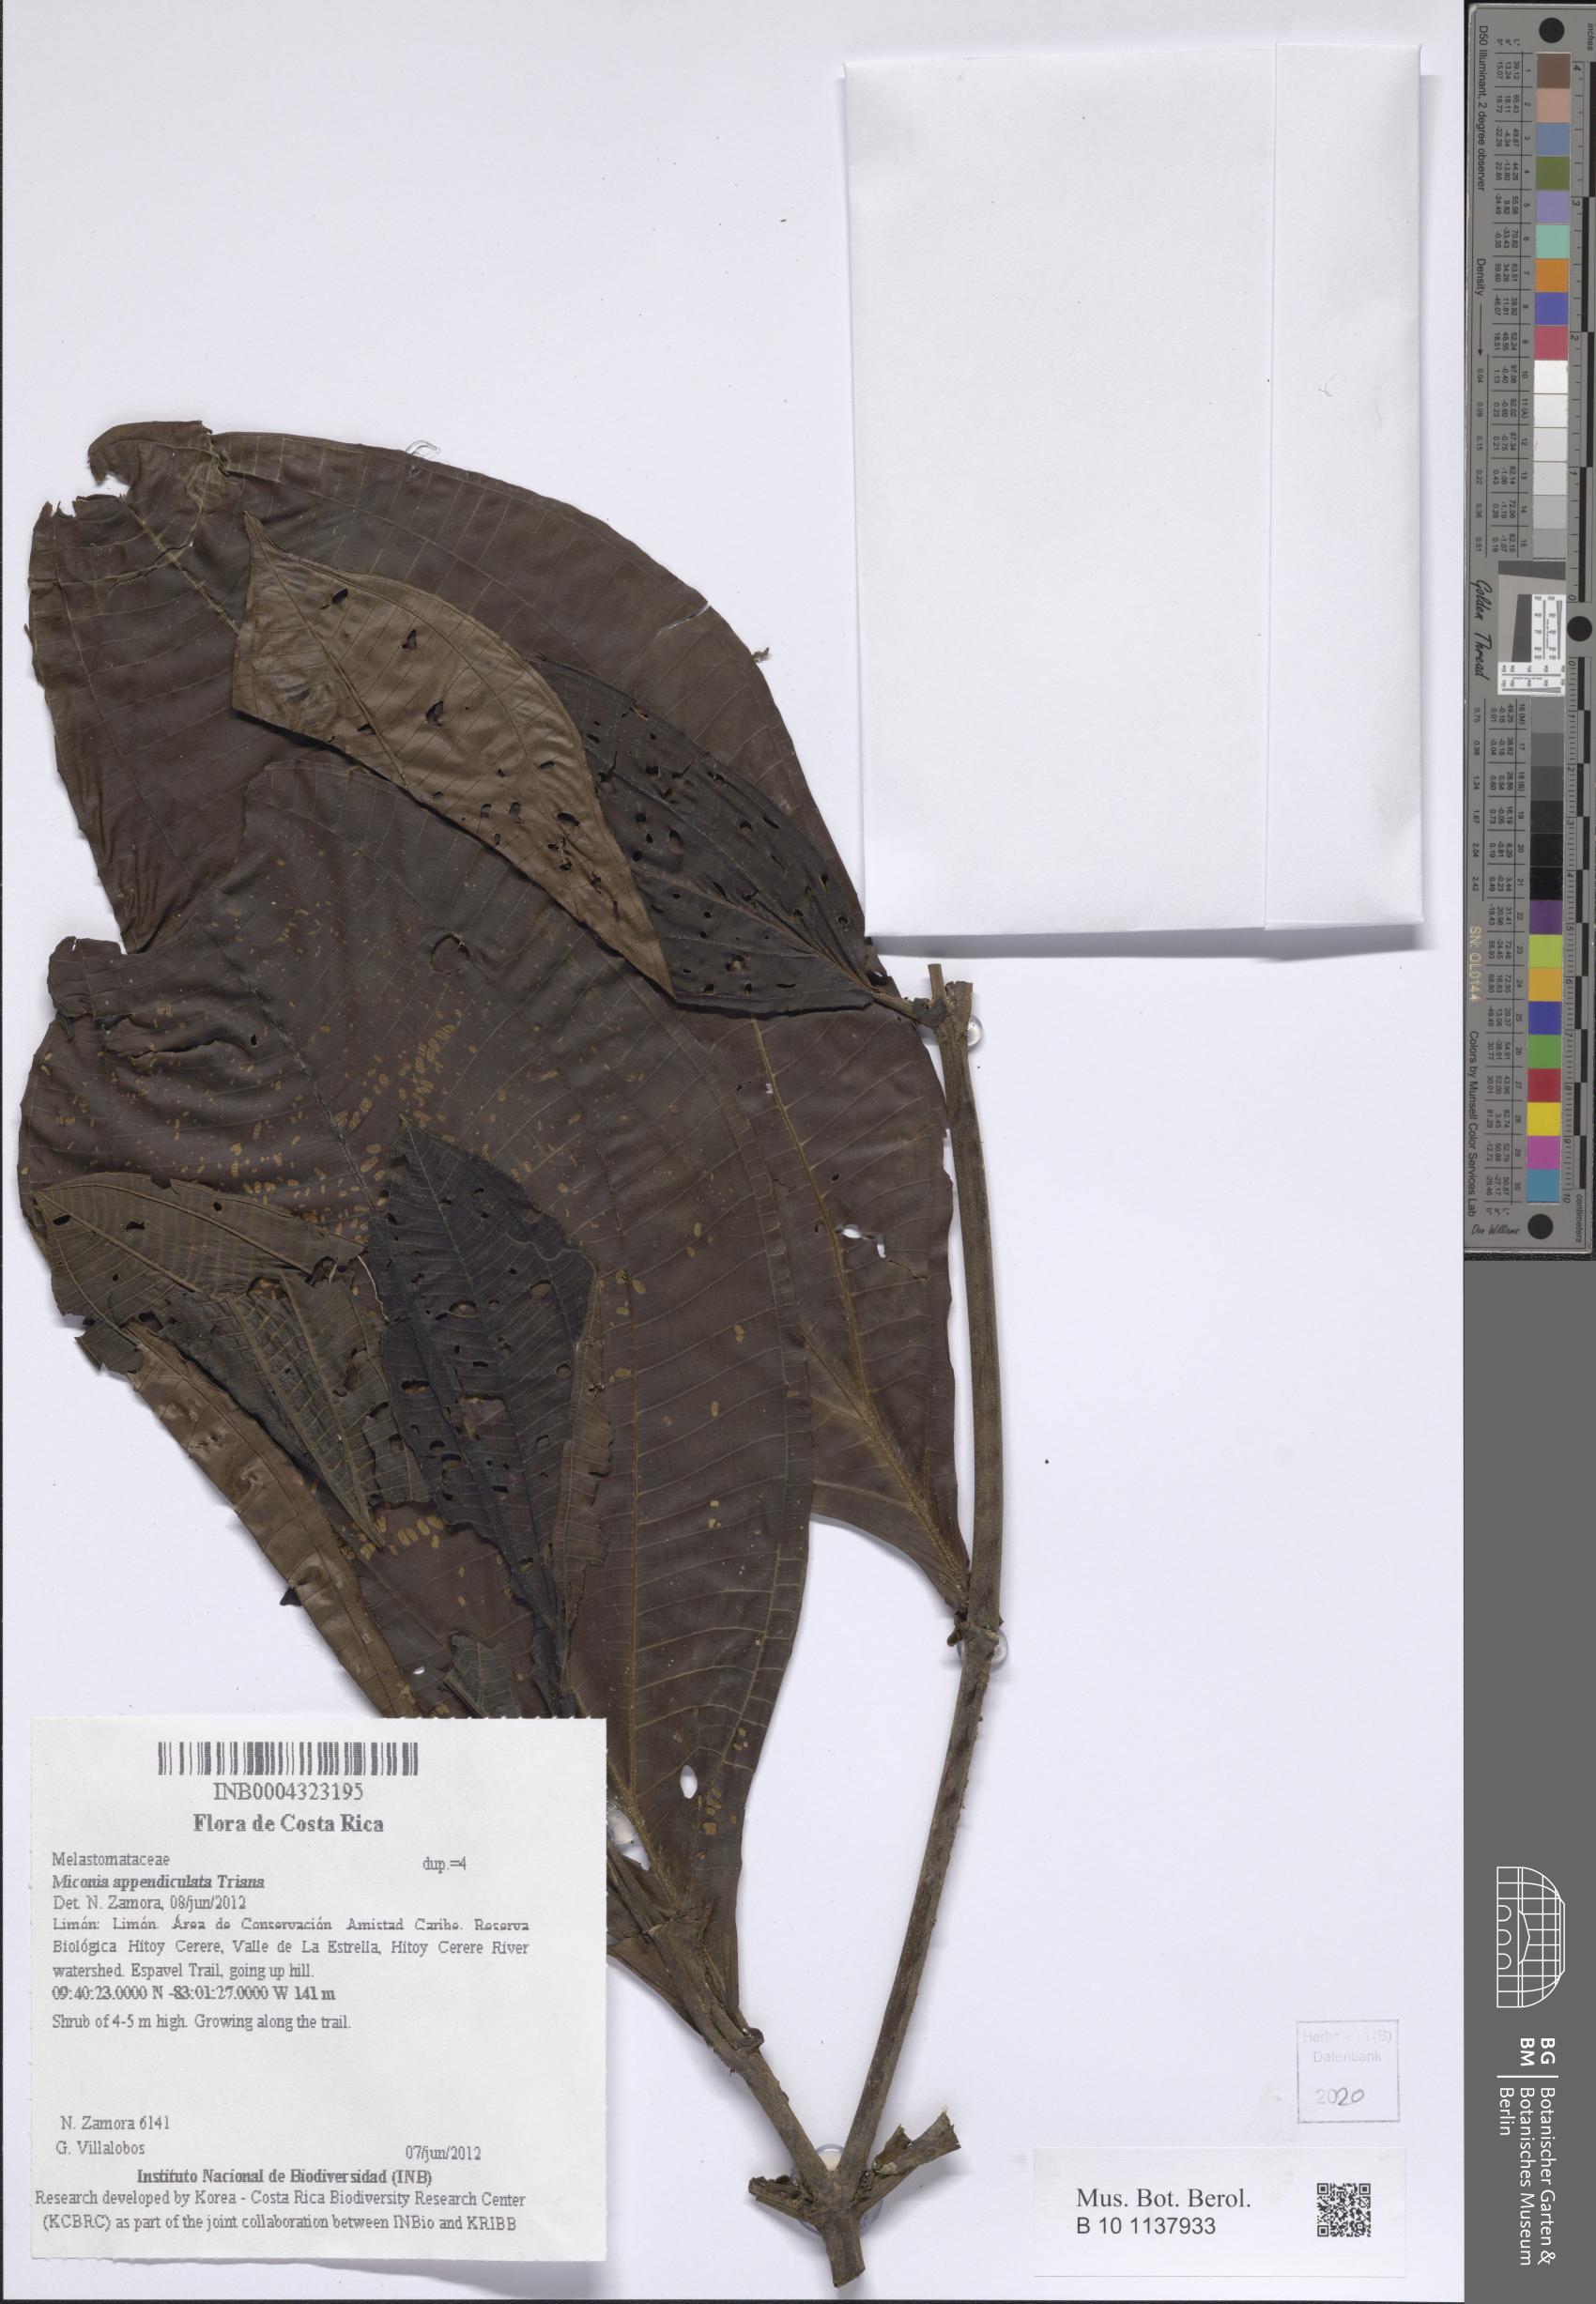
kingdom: Plantae
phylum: Tracheophyta
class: Magnoliopsida
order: Myrtales
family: Melastomataceae
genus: Miconia
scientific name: Miconia appendiculata
